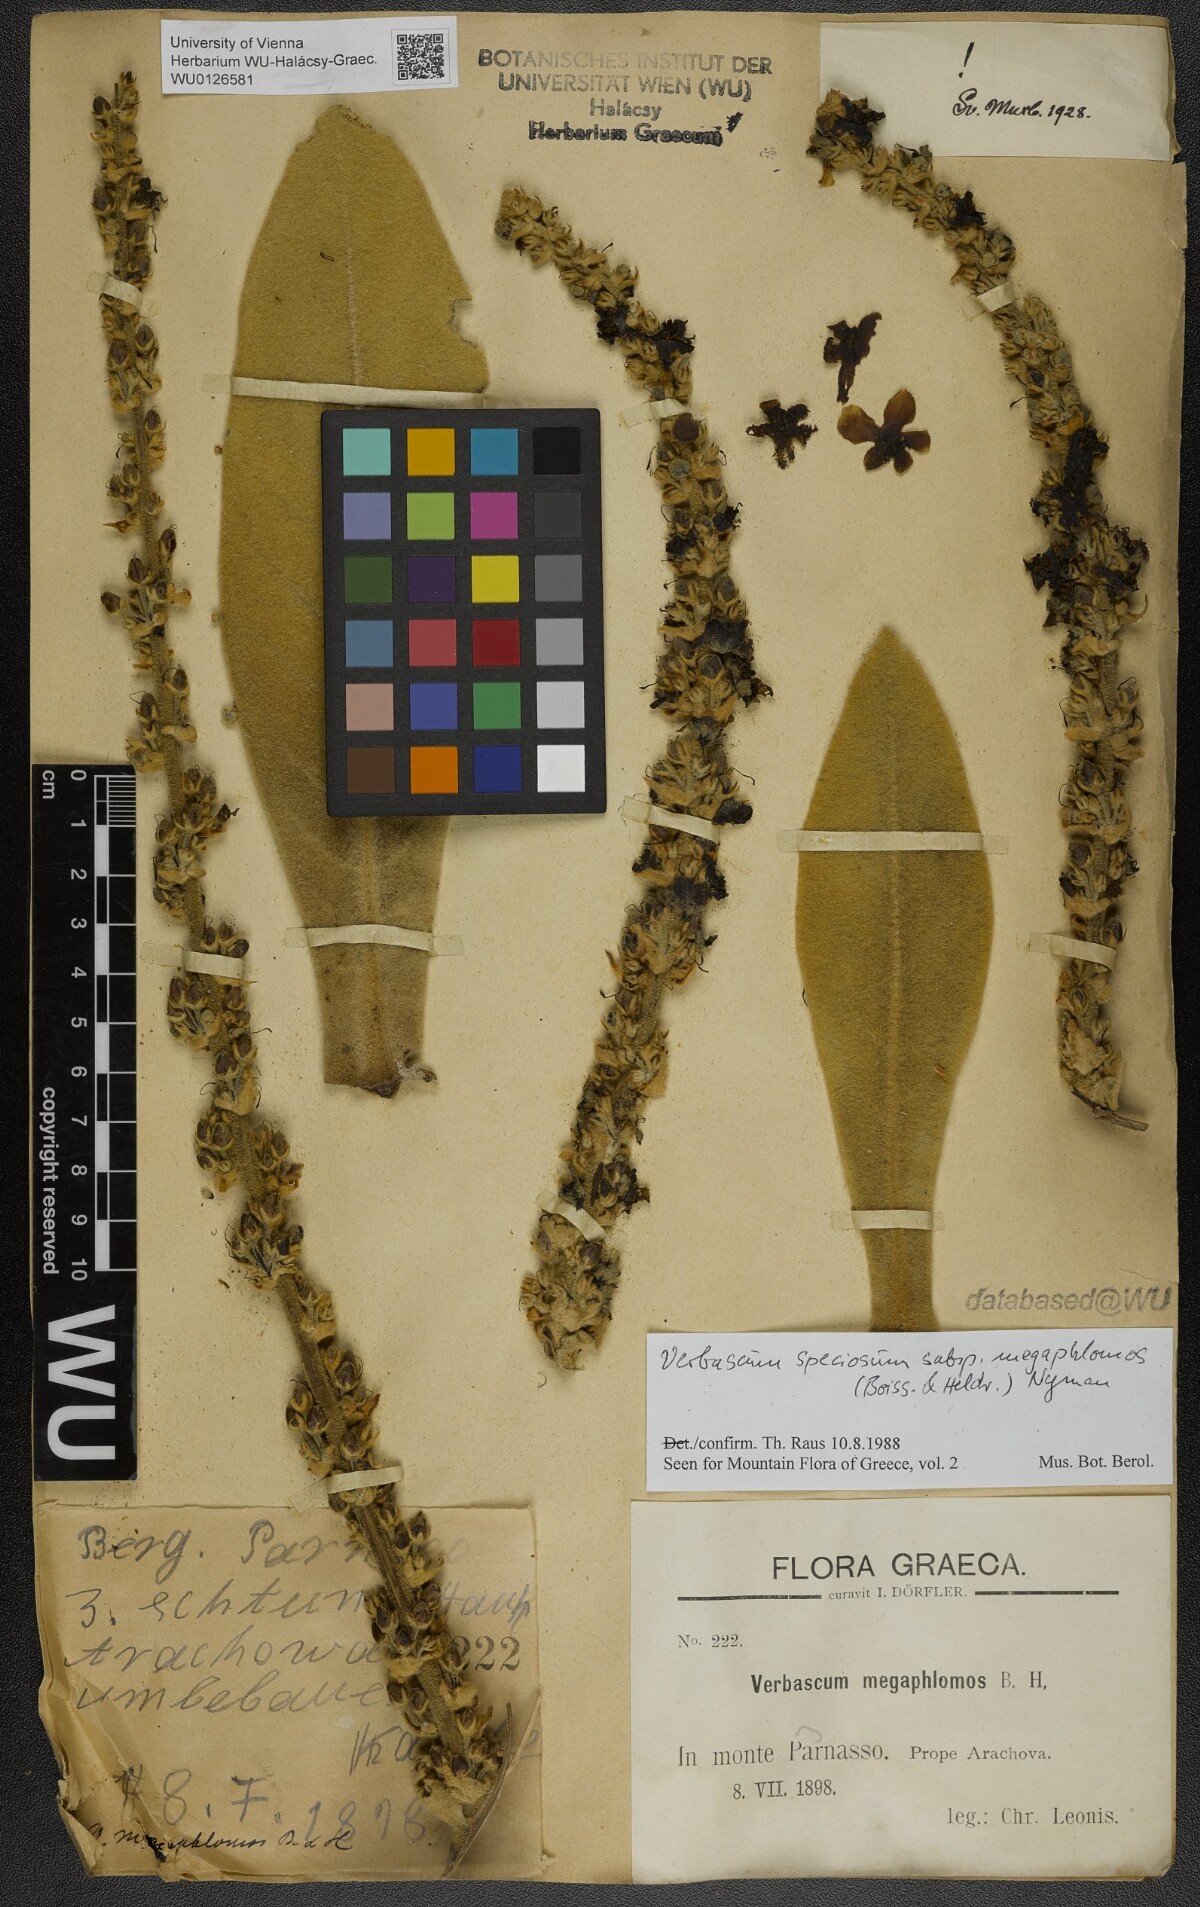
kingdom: Plantae
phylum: Tracheophyta
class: Magnoliopsida
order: Lamiales
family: Scrophulariaceae
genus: Verbascum
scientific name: Verbascum speciosum
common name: Hungarian mullein
